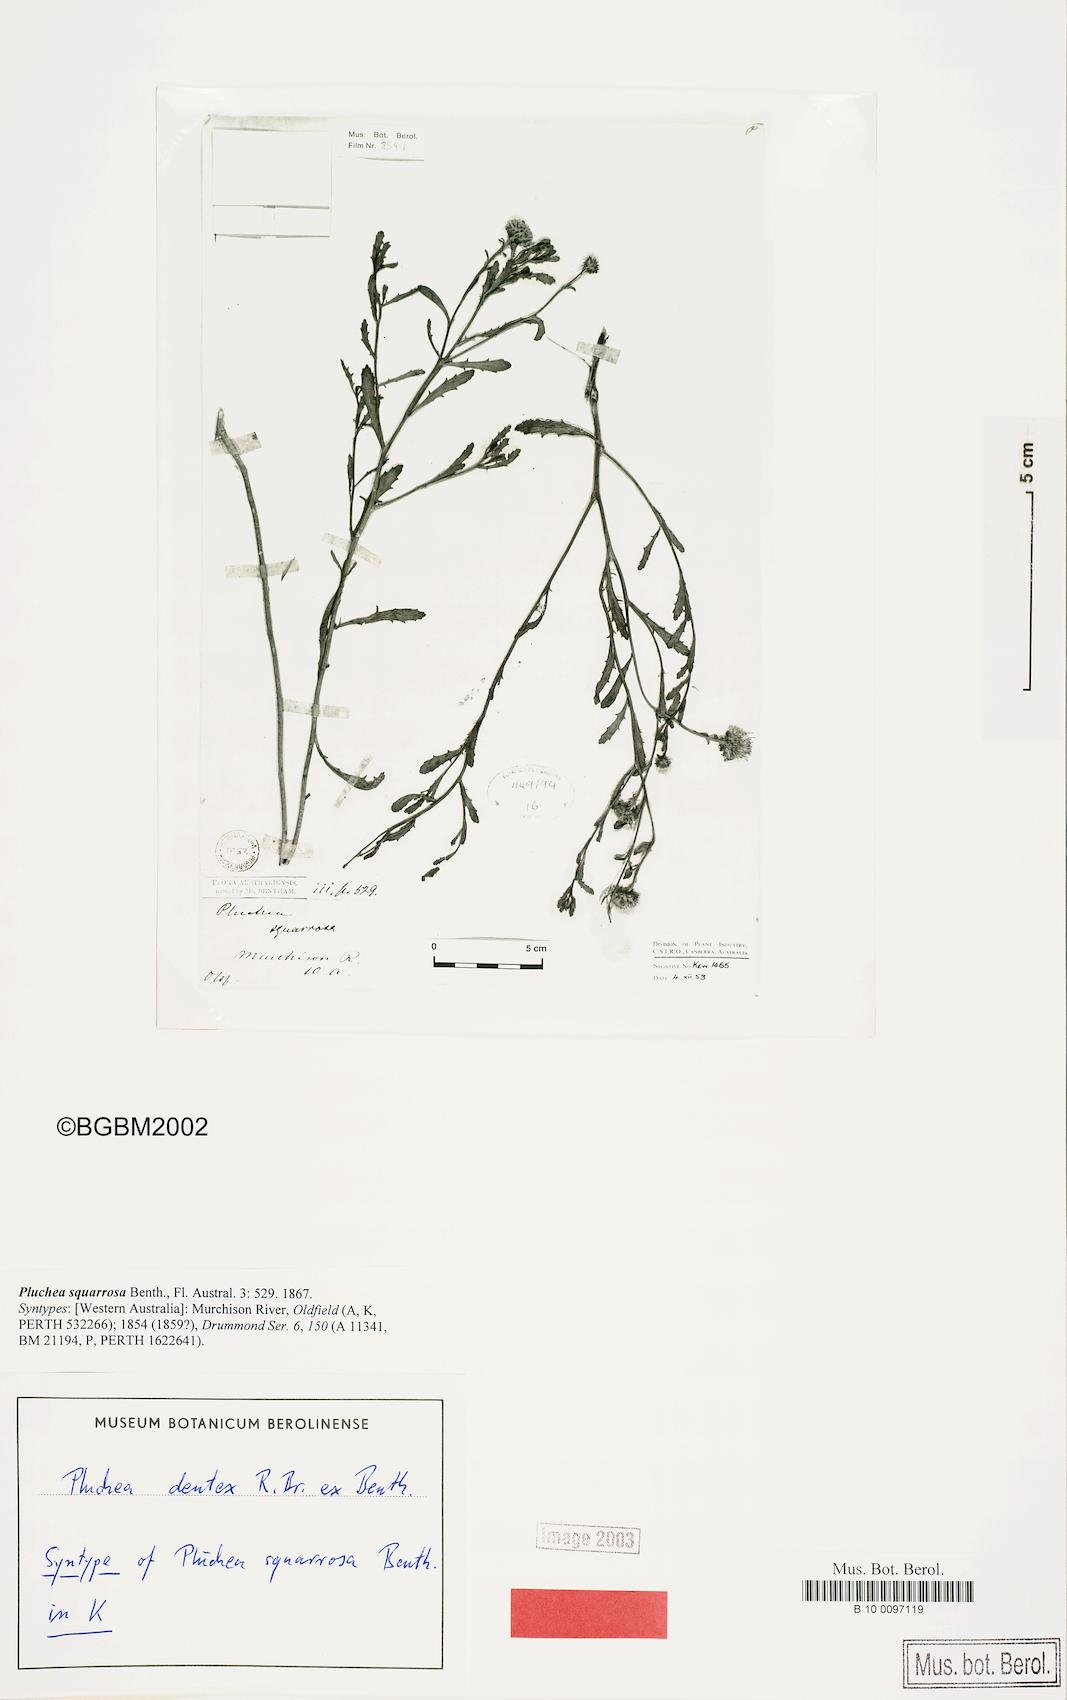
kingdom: Plantae
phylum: Tracheophyta
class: Magnoliopsida
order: Asterales
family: Asteraceae
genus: Pluchea
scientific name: Pluchea dentex
